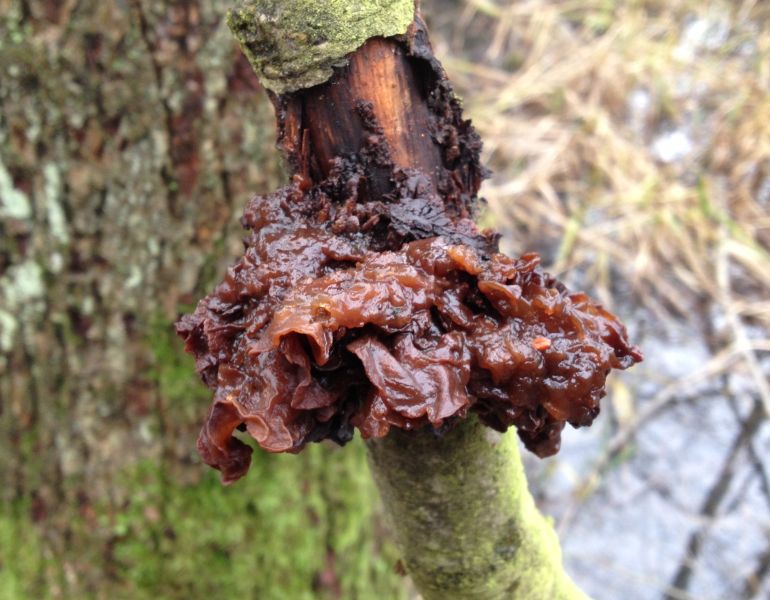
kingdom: Fungi
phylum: Basidiomycota
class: Tremellomycetes
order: Tremellales
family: Tremellaceae
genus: Phaeotremella
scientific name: Phaeotremella frondosa
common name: kæmpe-bævresvamp
